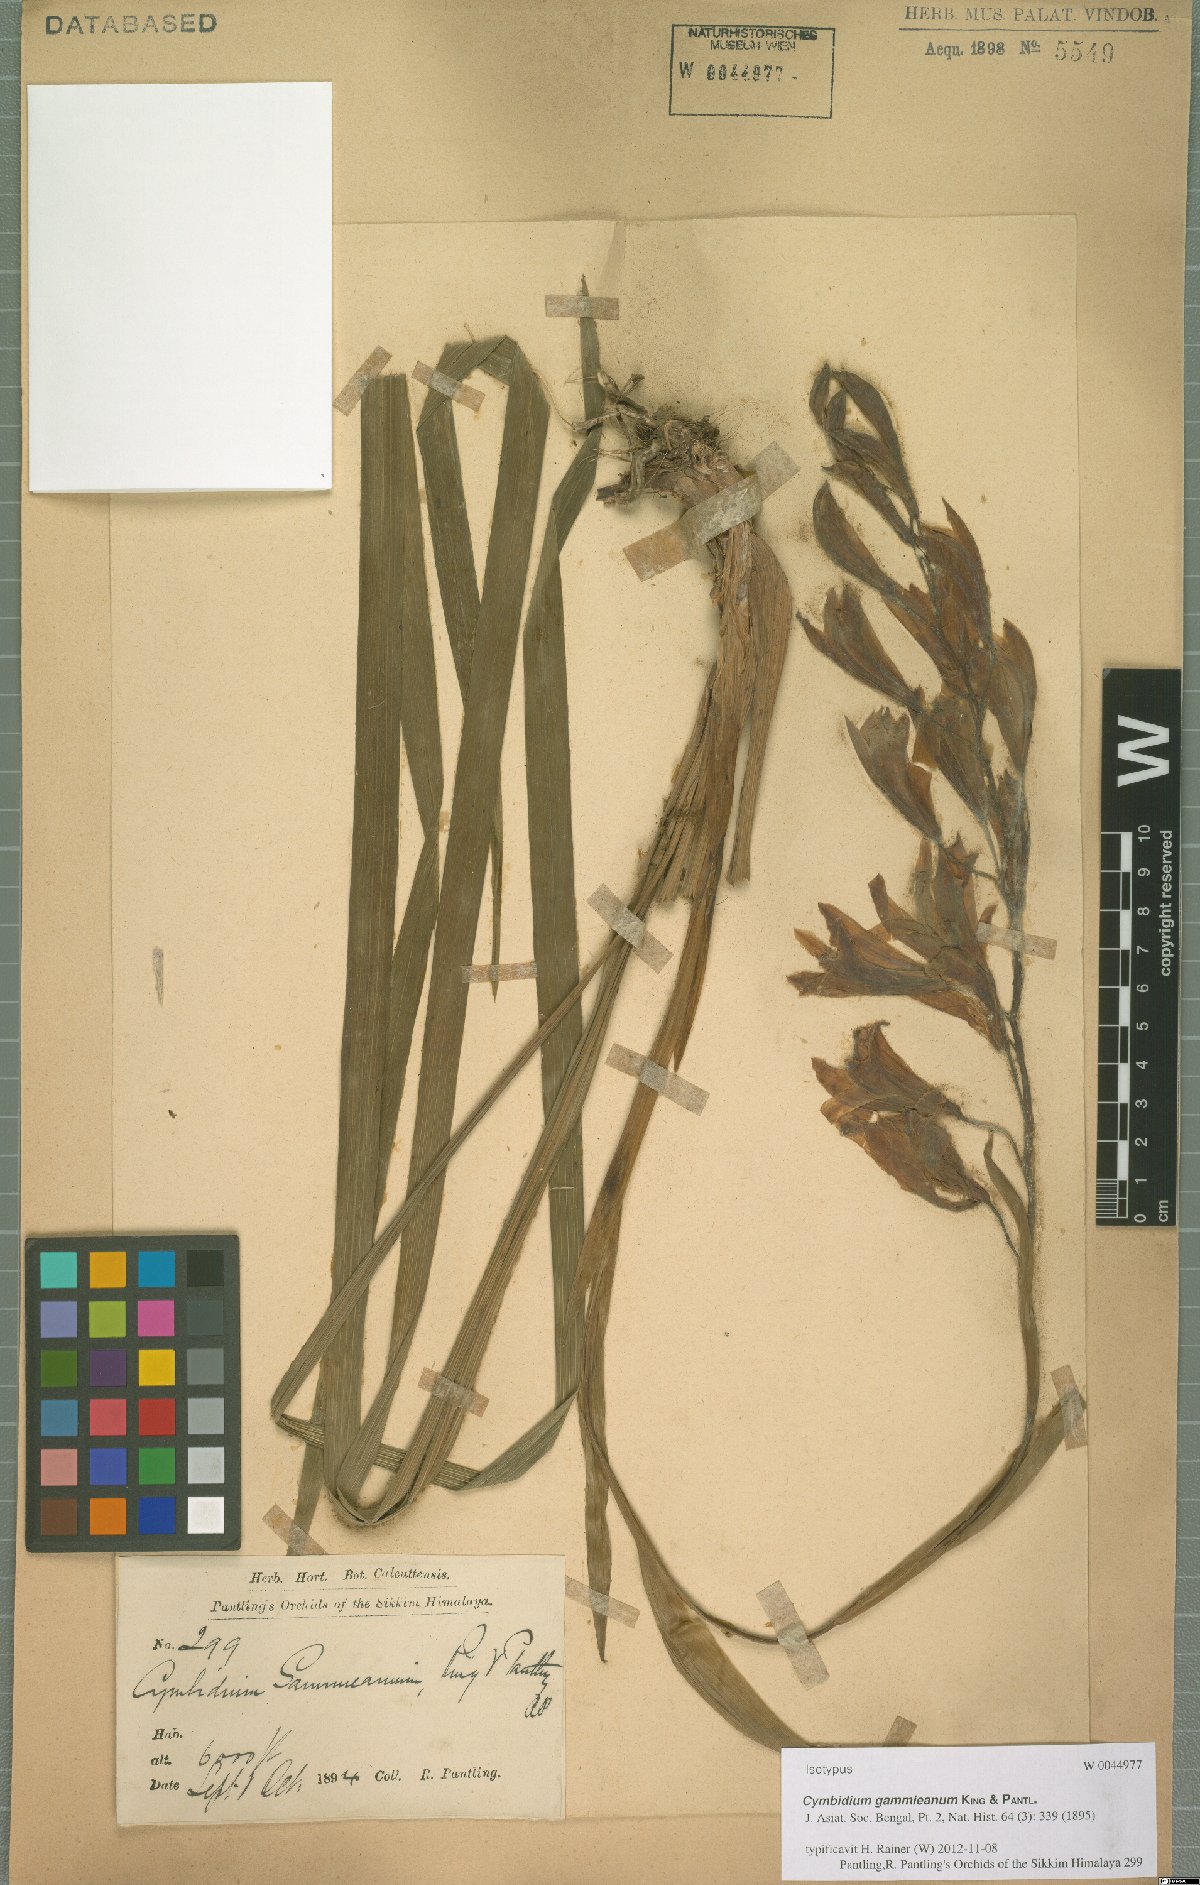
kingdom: Plantae
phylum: Tracheophyta
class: Liliopsida
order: Asparagales
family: Orchidaceae
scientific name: Orchidaceae
